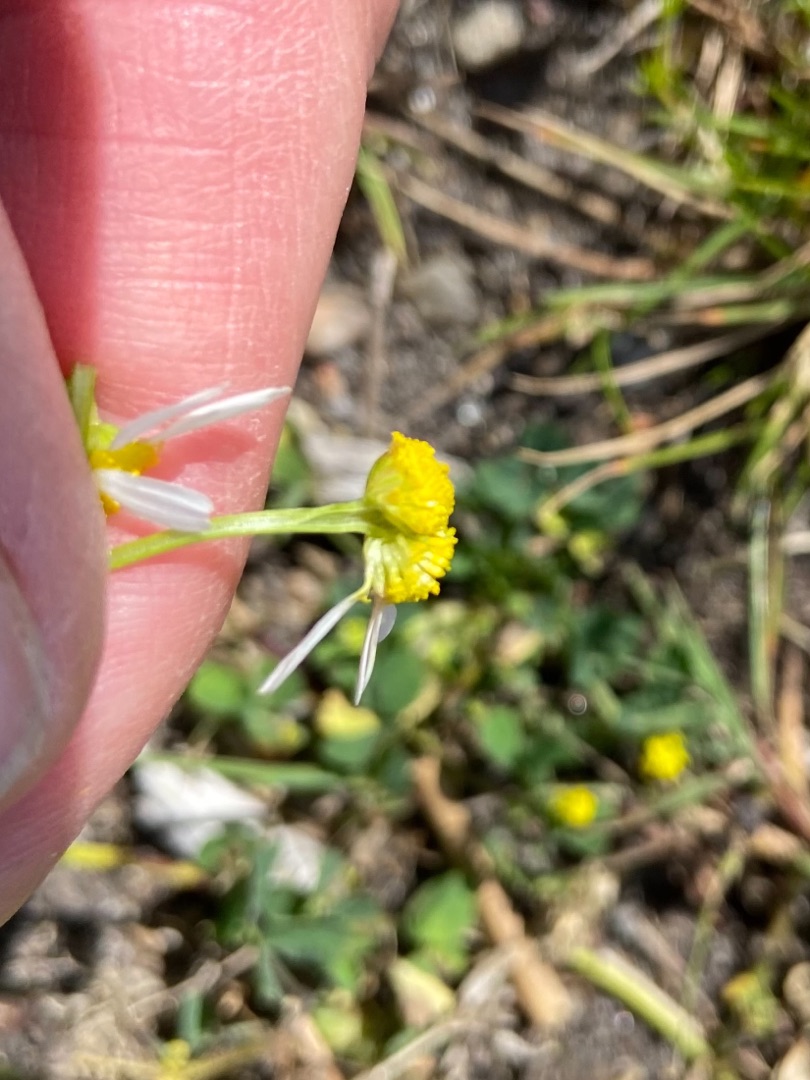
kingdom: Plantae
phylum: Tracheophyta
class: Magnoliopsida
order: Asterales
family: Asteraceae
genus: Tripleurospermum
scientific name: Tripleurospermum inodorum
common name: Lugtløs kamille
